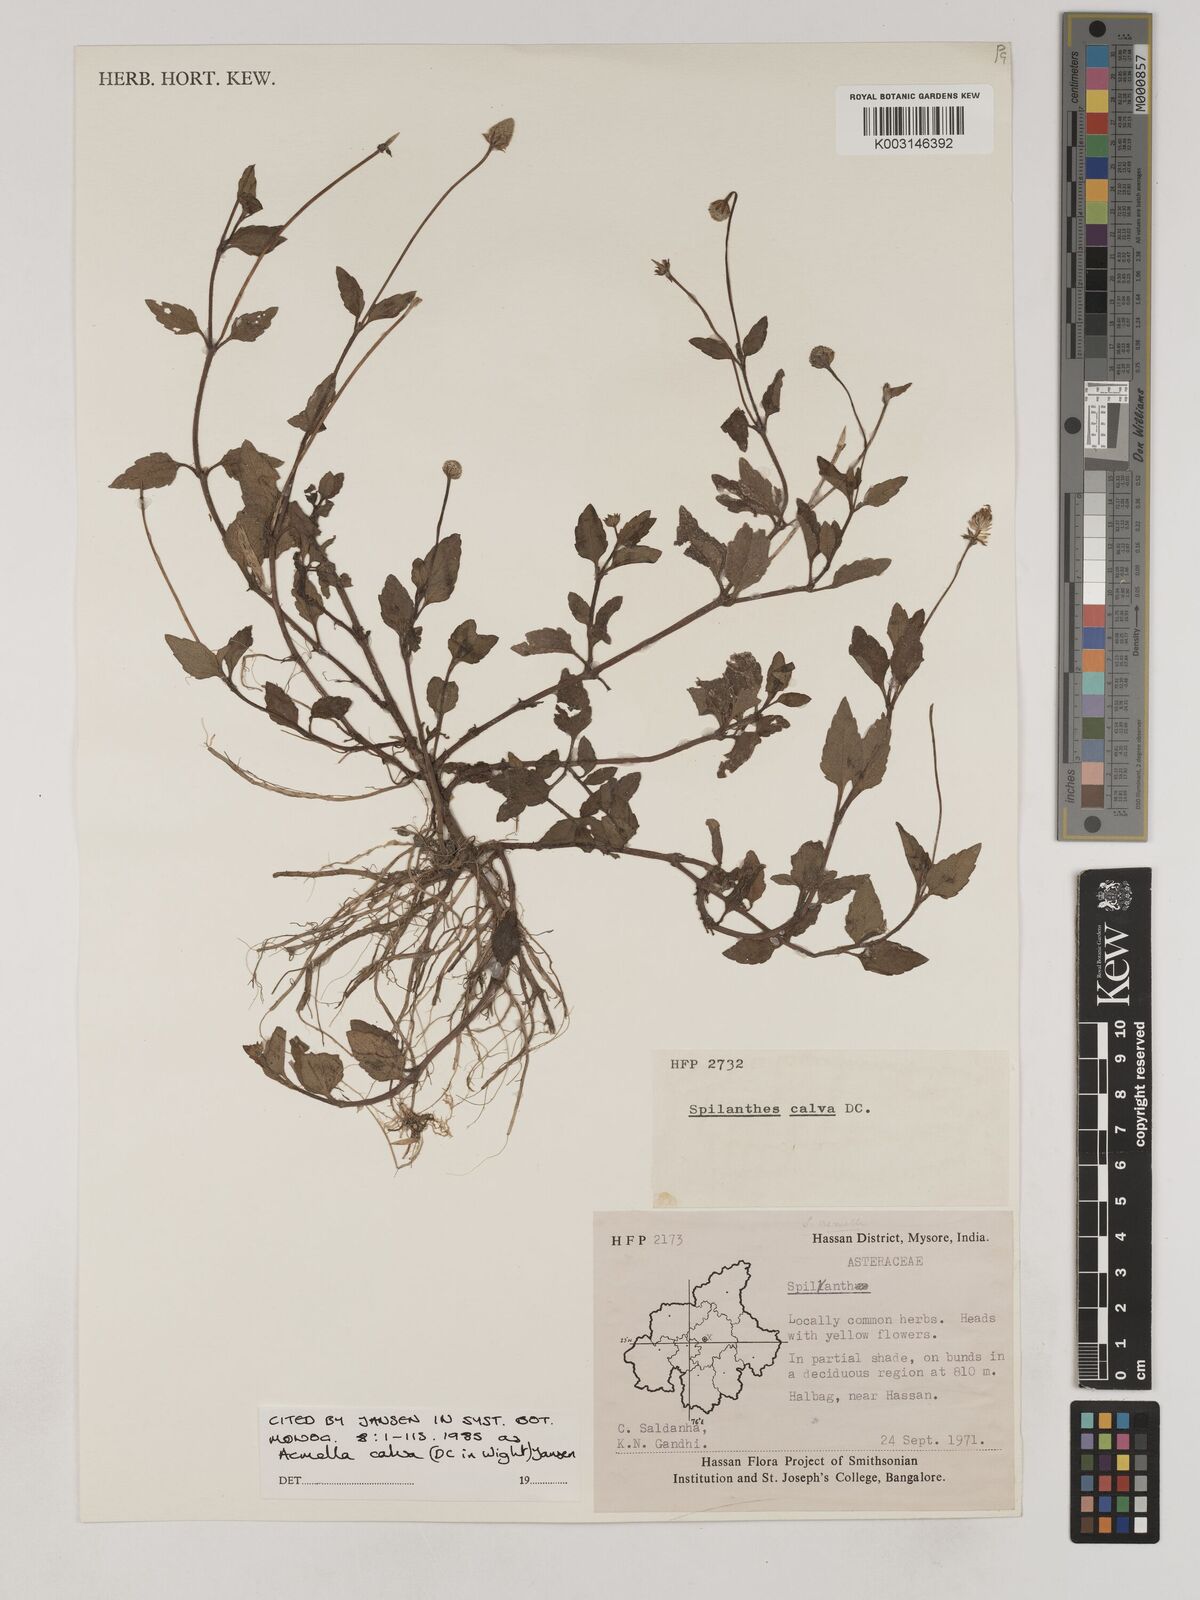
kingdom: Plantae
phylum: Tracheophyta
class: Magnoliopsida
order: Asterales
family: Asteraceae
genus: Acmella
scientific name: Acmella calva
